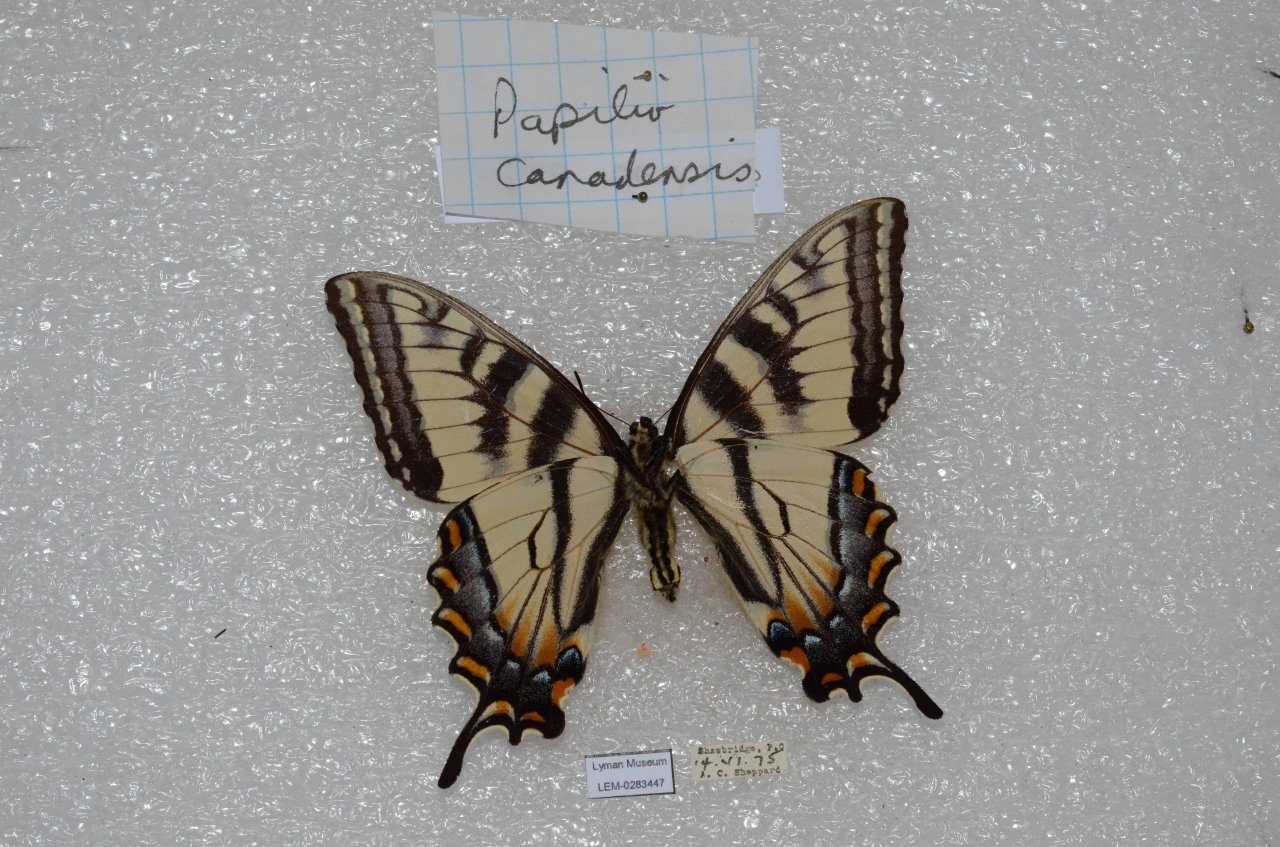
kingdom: Animalia
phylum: Arthropoda
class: Insecta
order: Lepidoptera
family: Papilionidae
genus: Pterourus
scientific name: Pterourus canadensis
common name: Canadian Tiger Swallowtail
